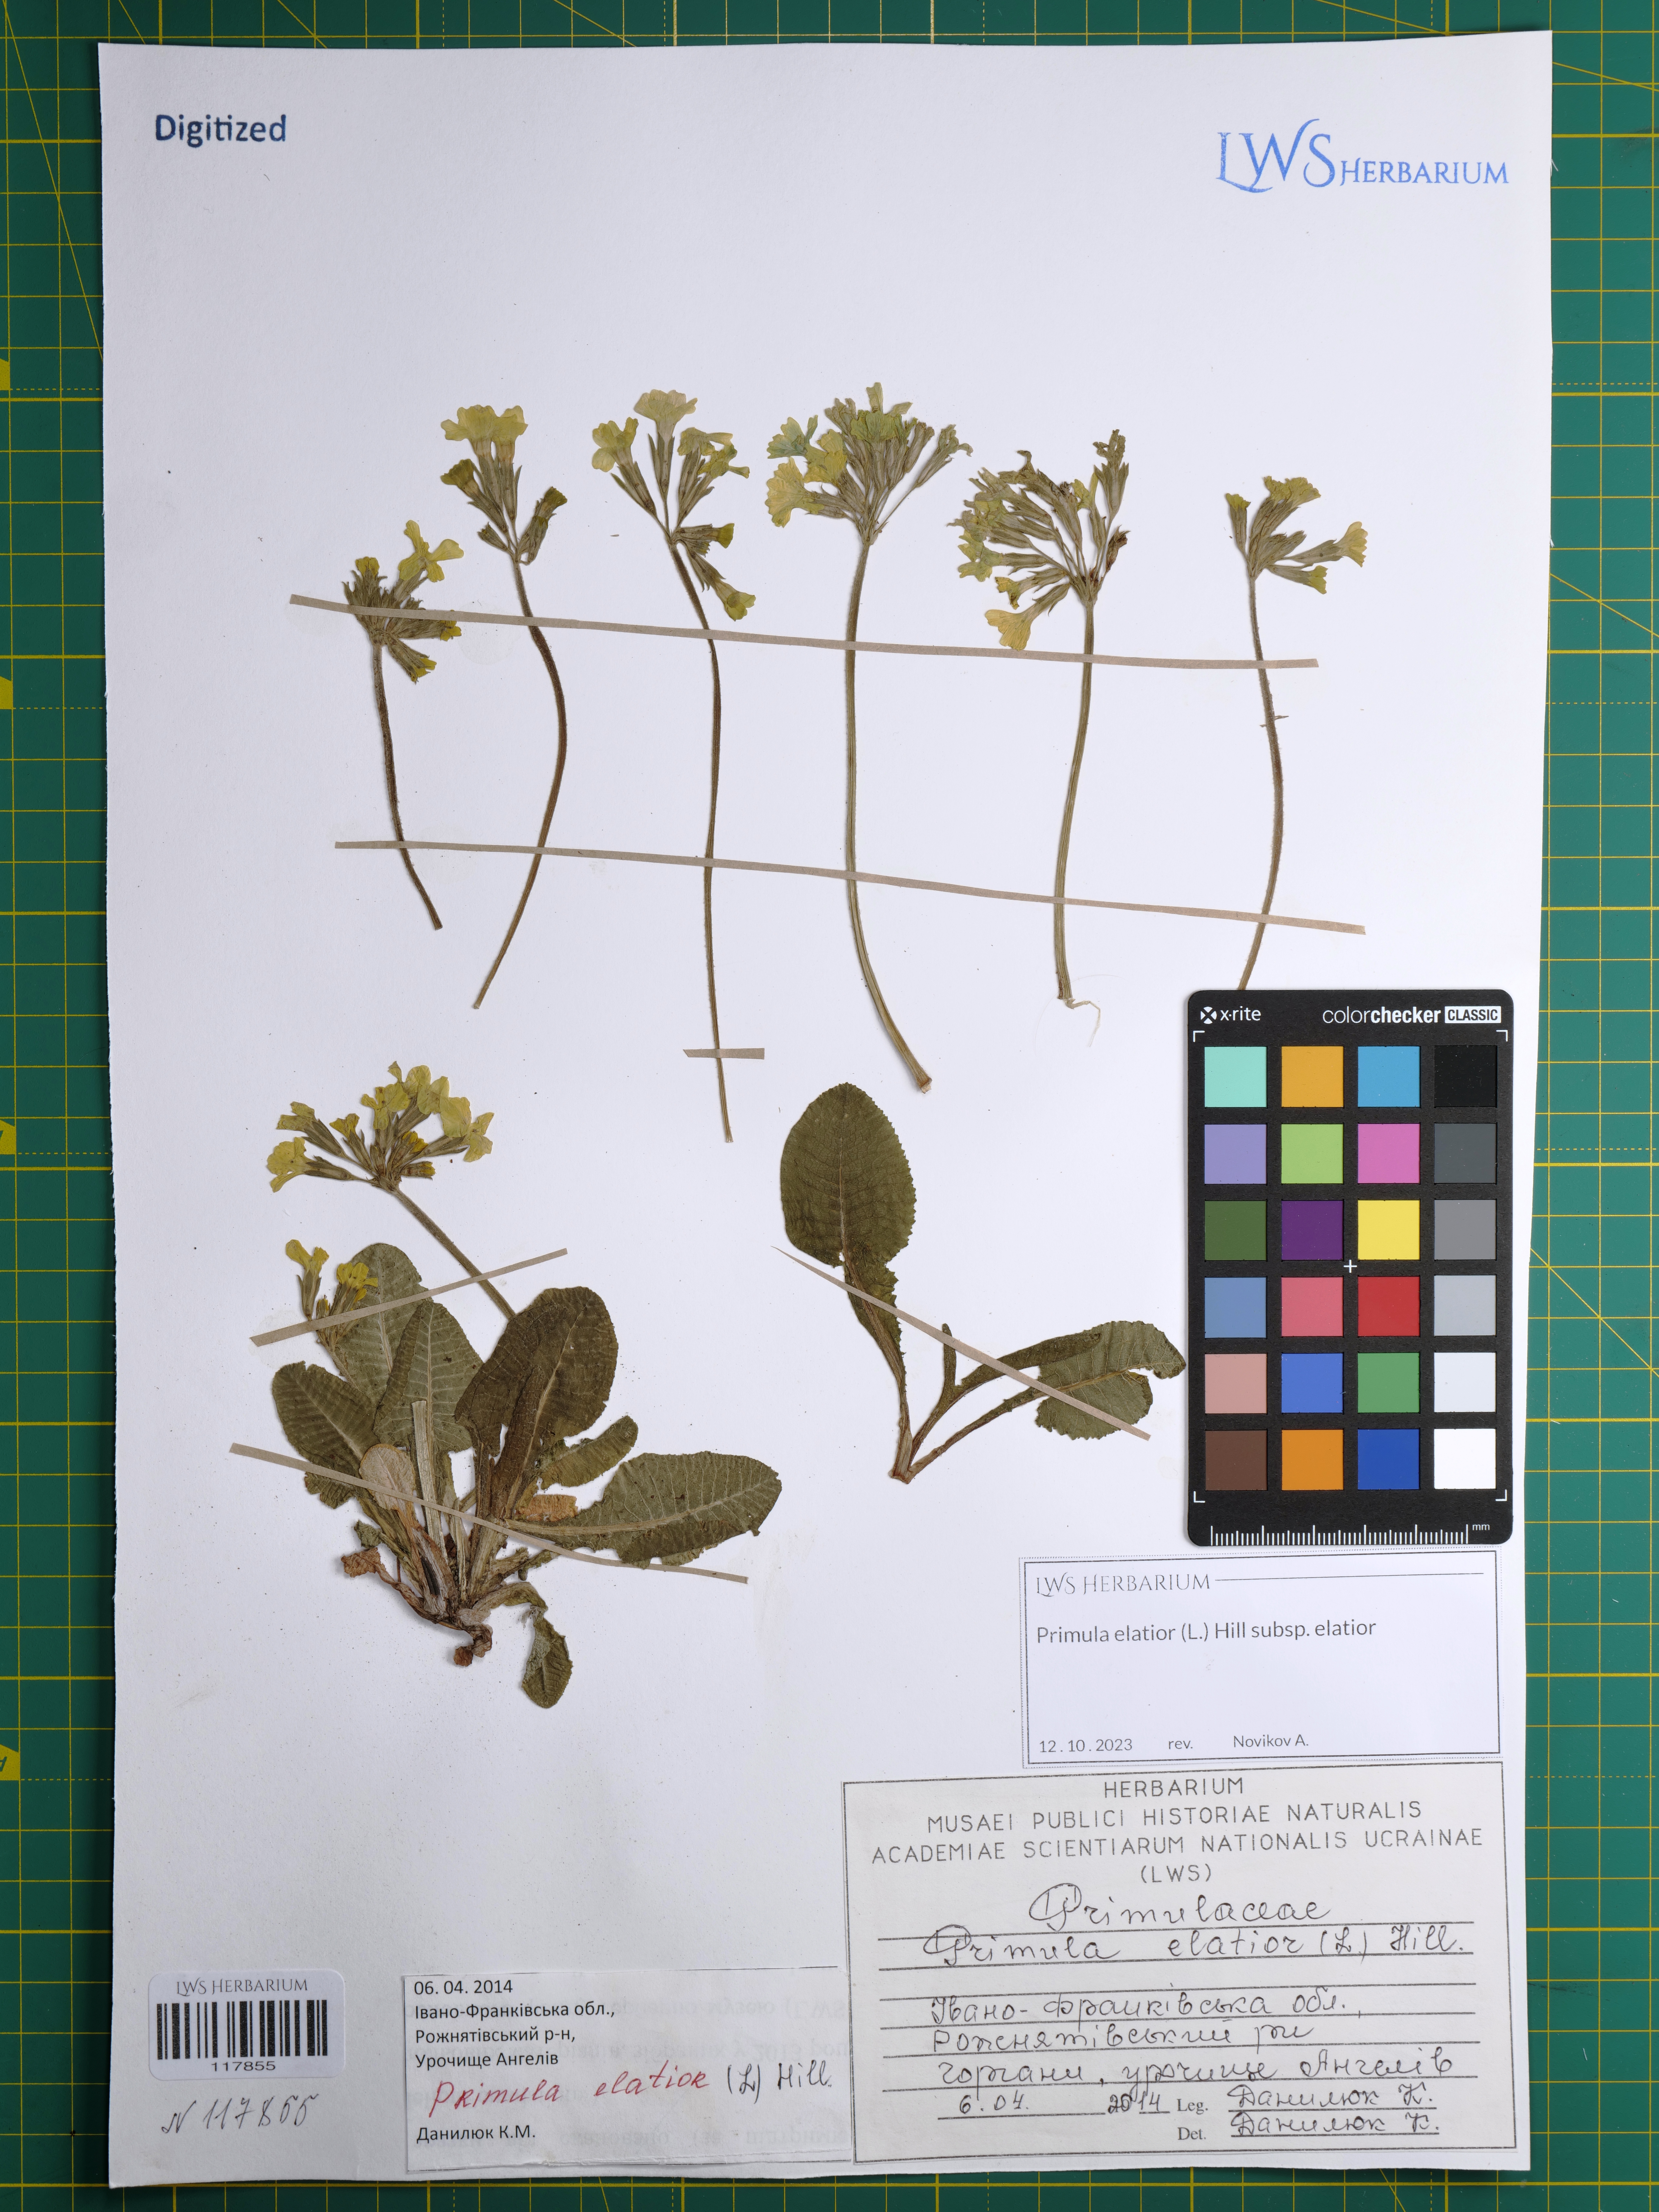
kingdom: Plantae
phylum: Tracheophyta
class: Magnoliopsida
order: Ericales
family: Primulaceae
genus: Primula
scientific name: Primula elatior
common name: Oxlip
